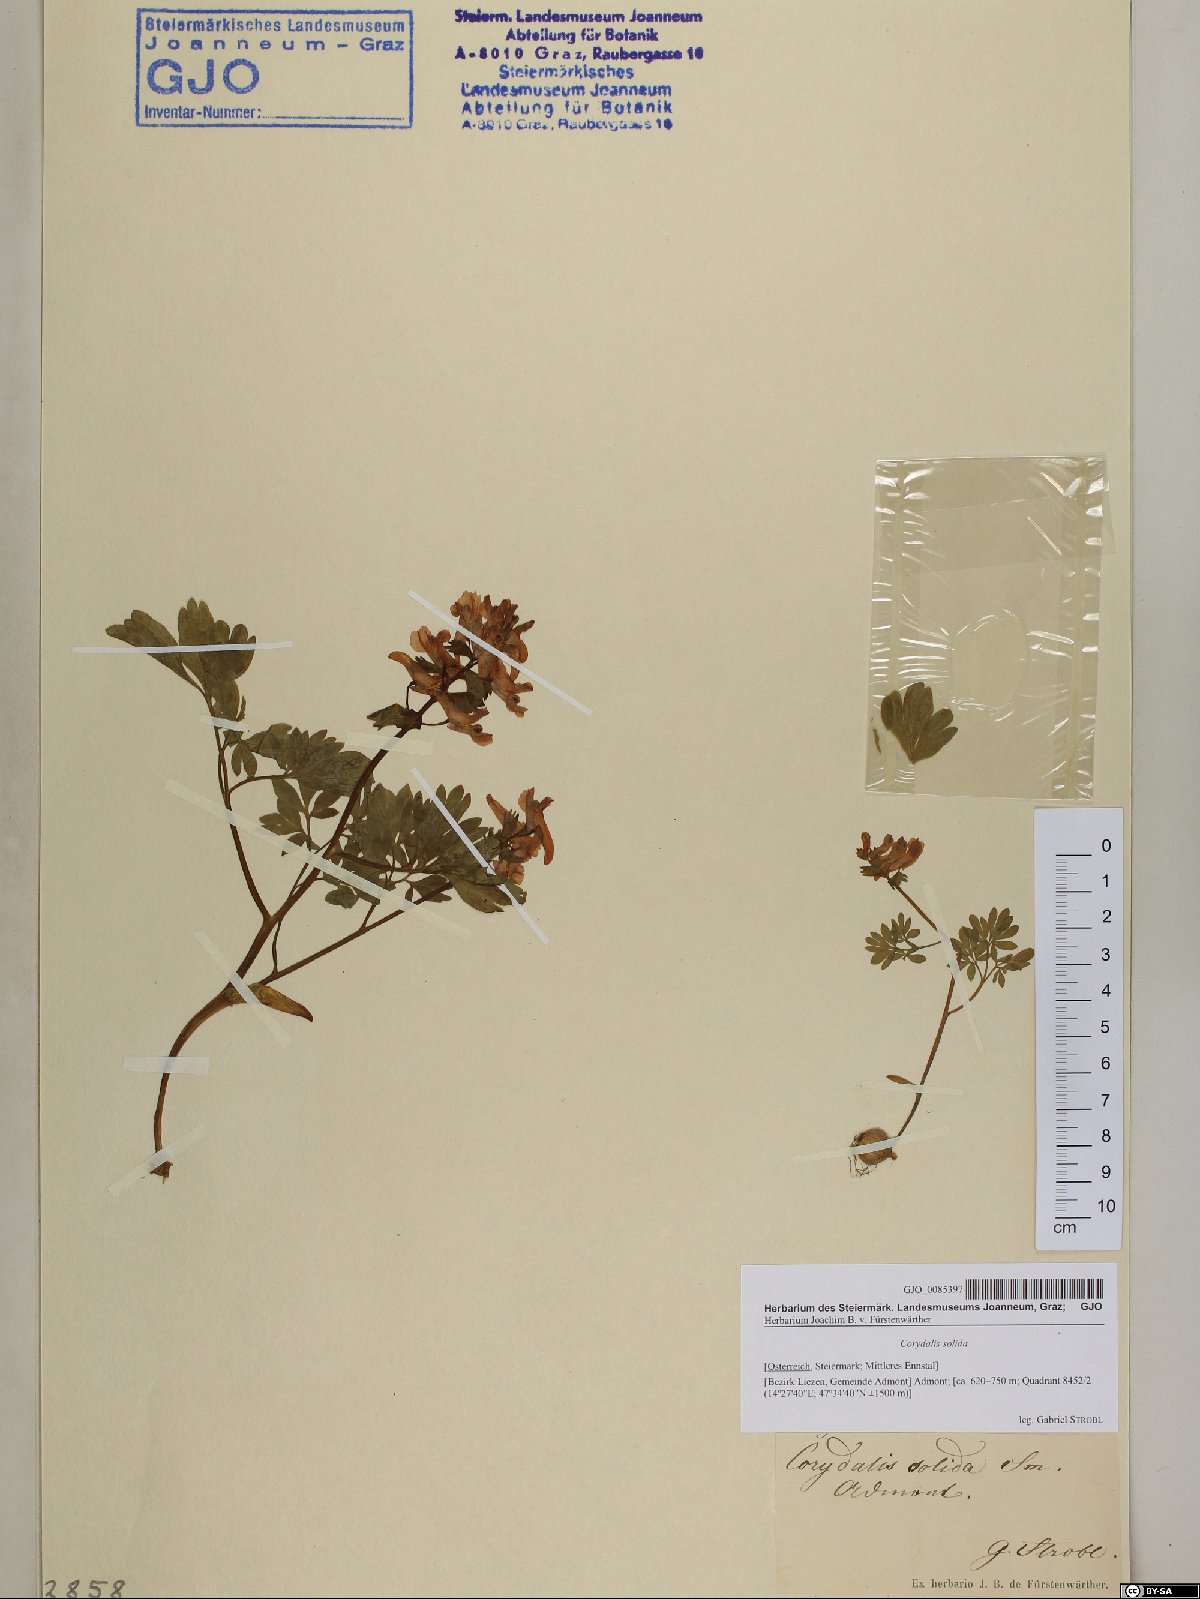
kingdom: Plantae
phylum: Tracheophyta
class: Magnoliopsida
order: Ranunculales
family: Papaveraceae
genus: Corydalis
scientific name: Corydalis solida
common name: Bird-in-a-bush
